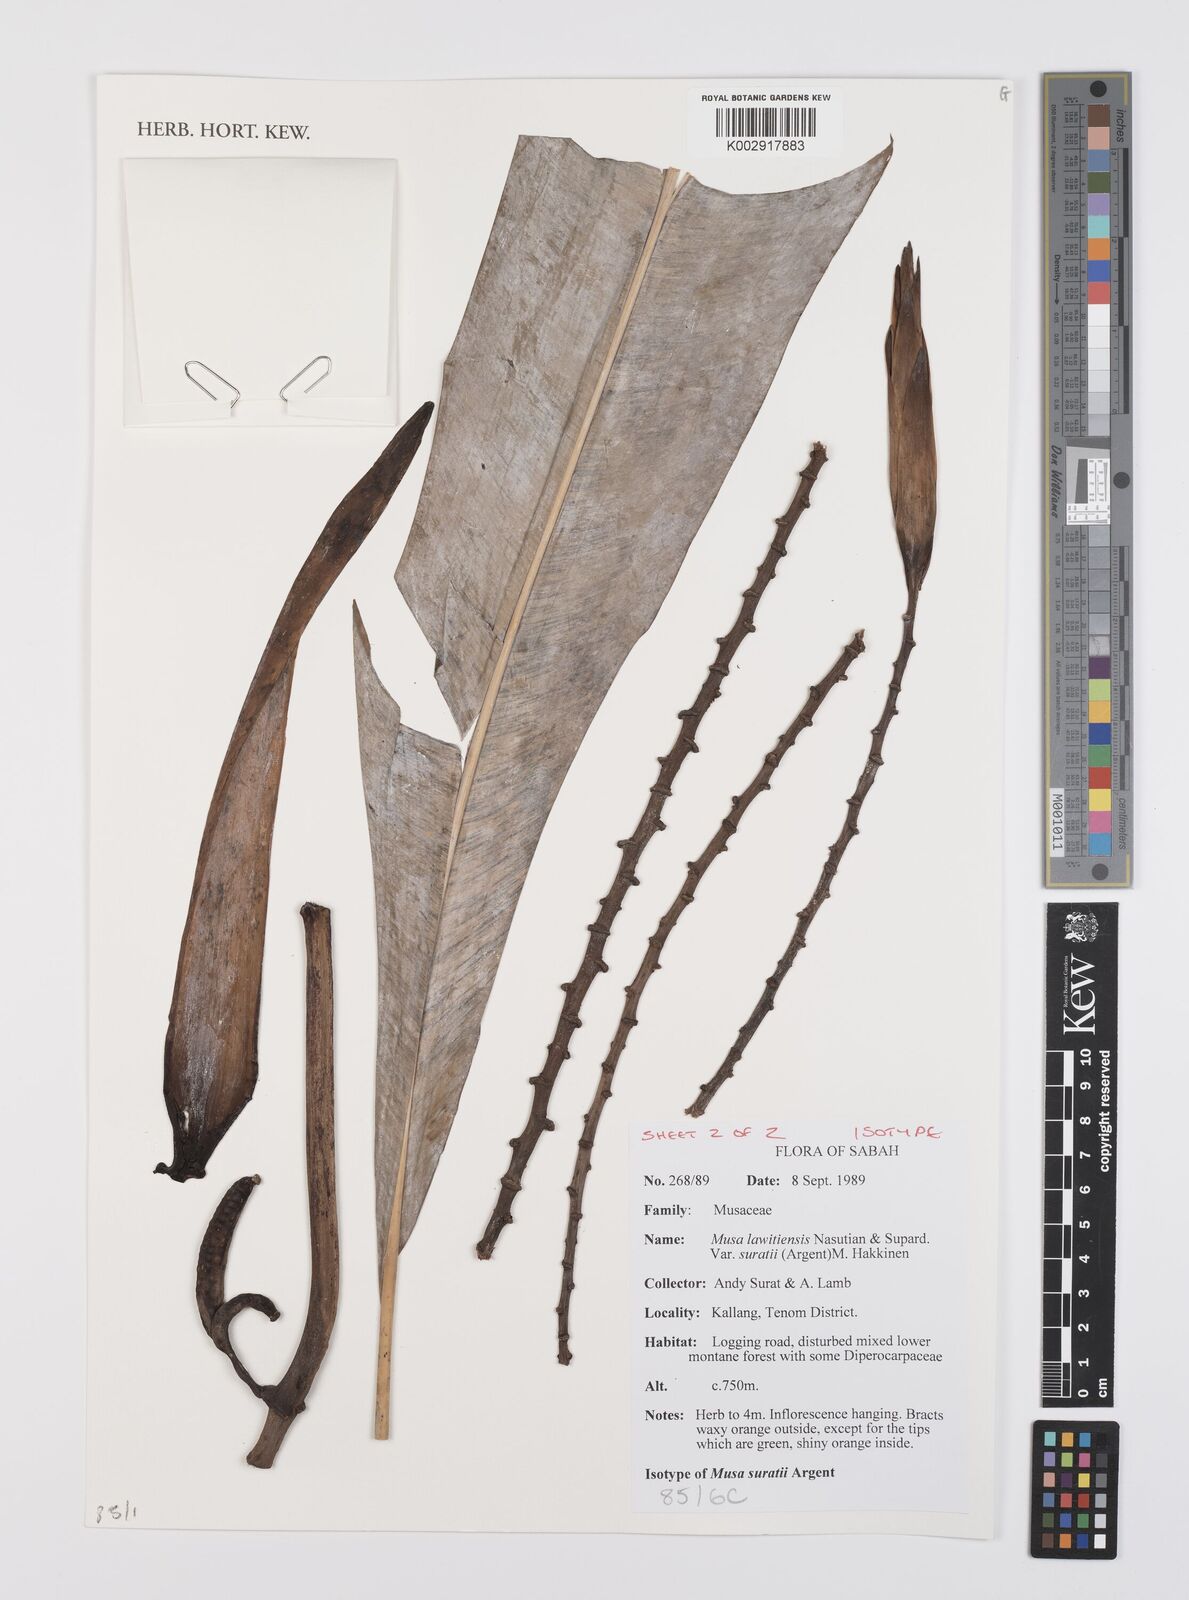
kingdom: Plantae
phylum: Tracheophyta
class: Liliopsida
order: Zingiberales
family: Musaceae
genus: Musa
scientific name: Musa lawitiensis
